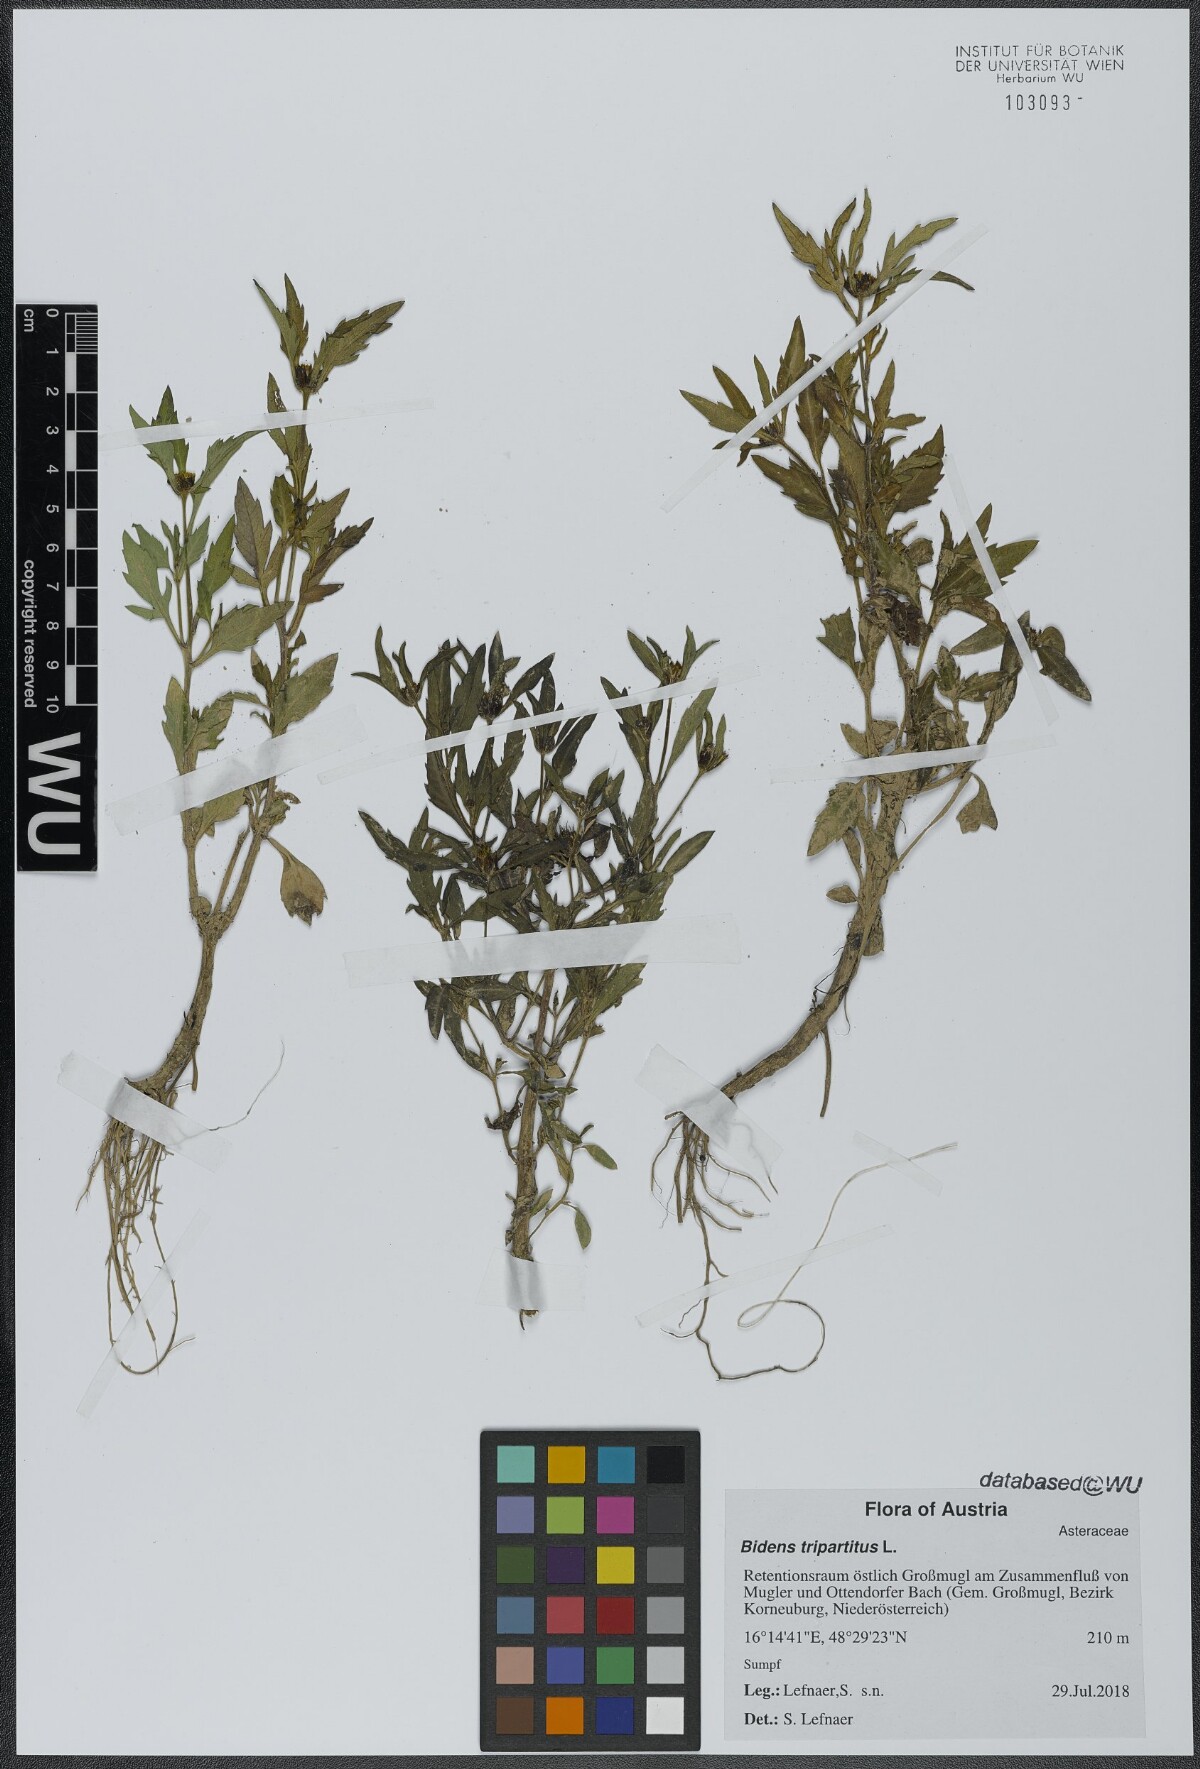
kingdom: Plantae
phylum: Tracheophyta
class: Magnoliopsida
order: Asterales
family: Asteraceae
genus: Bidens
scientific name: Bidens tripartita
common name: Trifid bur-marigold
